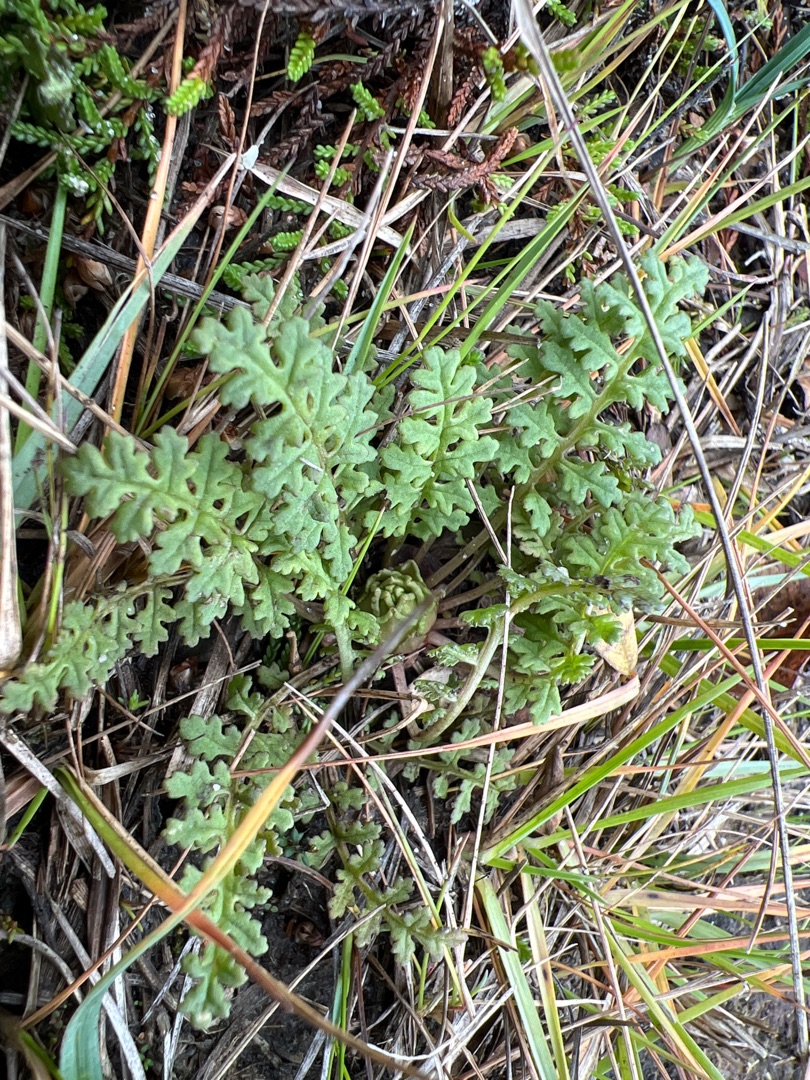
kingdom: Plantae
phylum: Tracheophyta
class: Magnoliopsida
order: Lamiales
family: Orobanchaceae
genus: Pedicularis
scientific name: Pedicularis sylvatica
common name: Mose-troldurt
